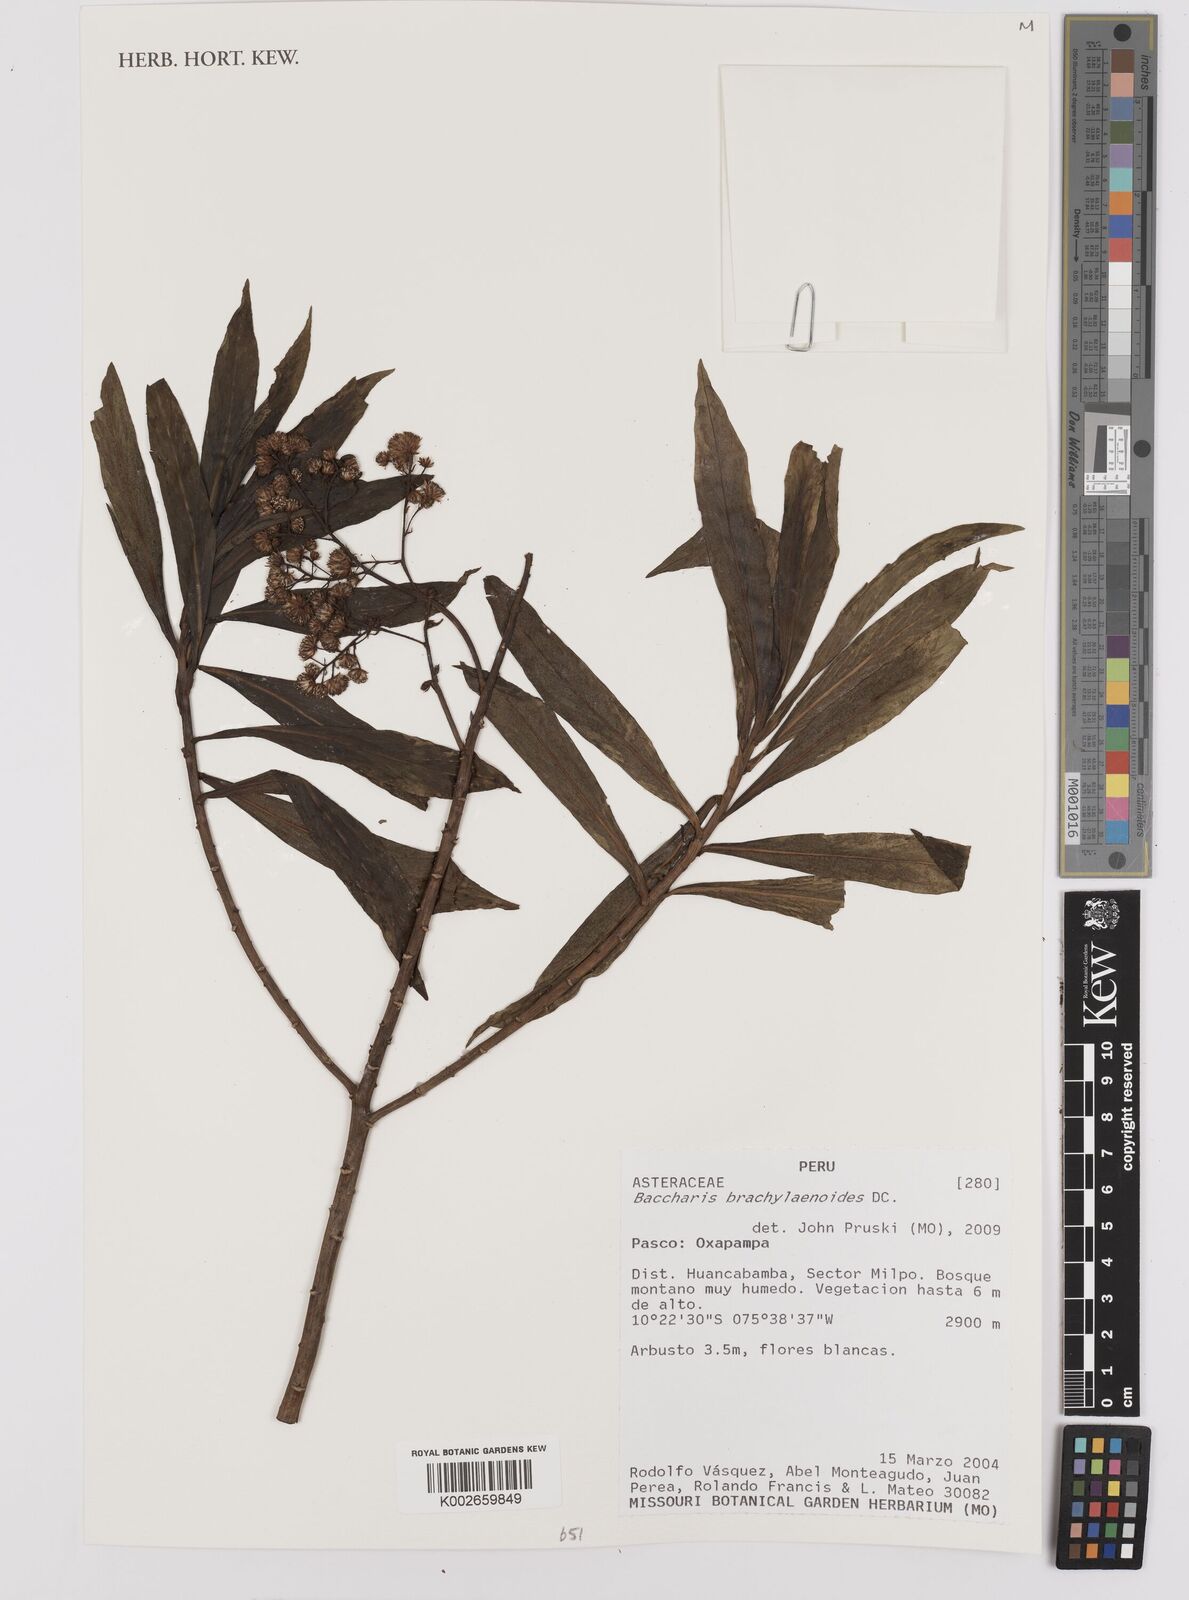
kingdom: Plantae
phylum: Tracheophyta
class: Magnoliopsida
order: Asterales
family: Asteraceae
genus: Baccharis
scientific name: Baccharis oblongifolia
